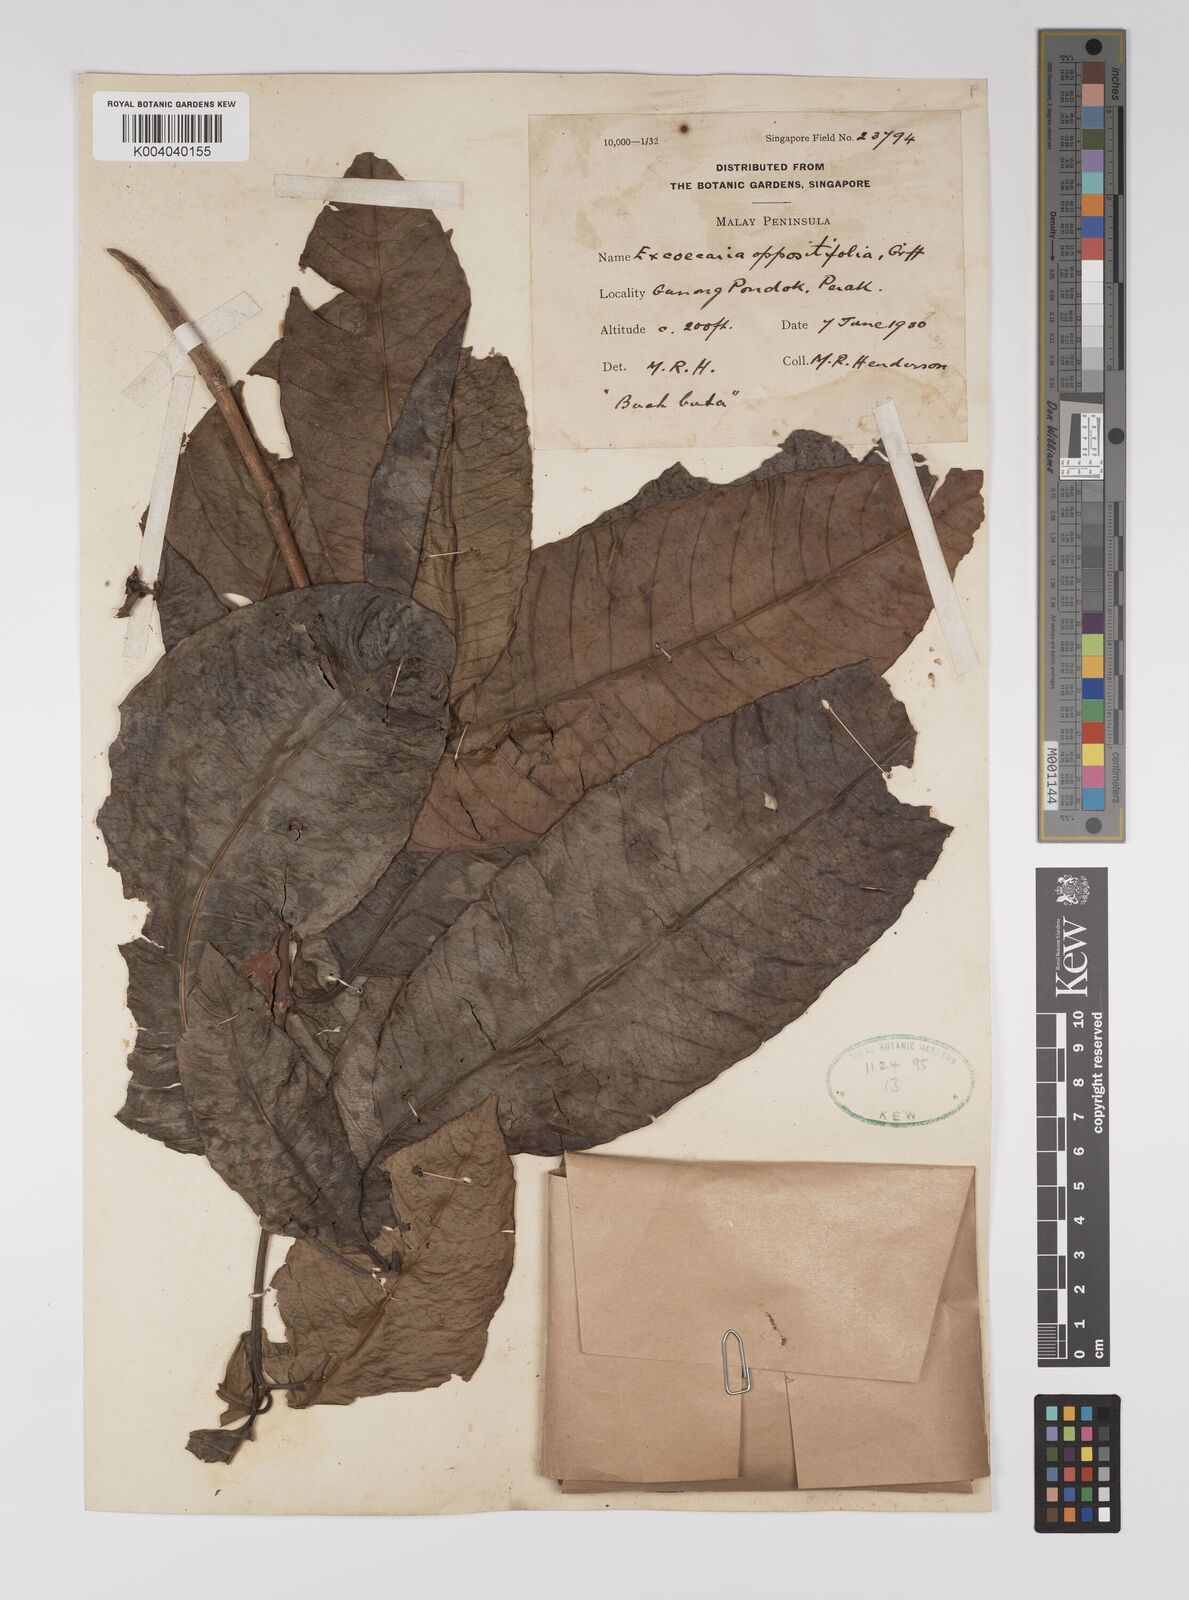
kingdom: Plantae
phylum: Tracheophyta
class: Magnoliopsida
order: Malpighiales
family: Euphorbiaceae
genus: Excoecaria
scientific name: Excoecaria oppositifolia
